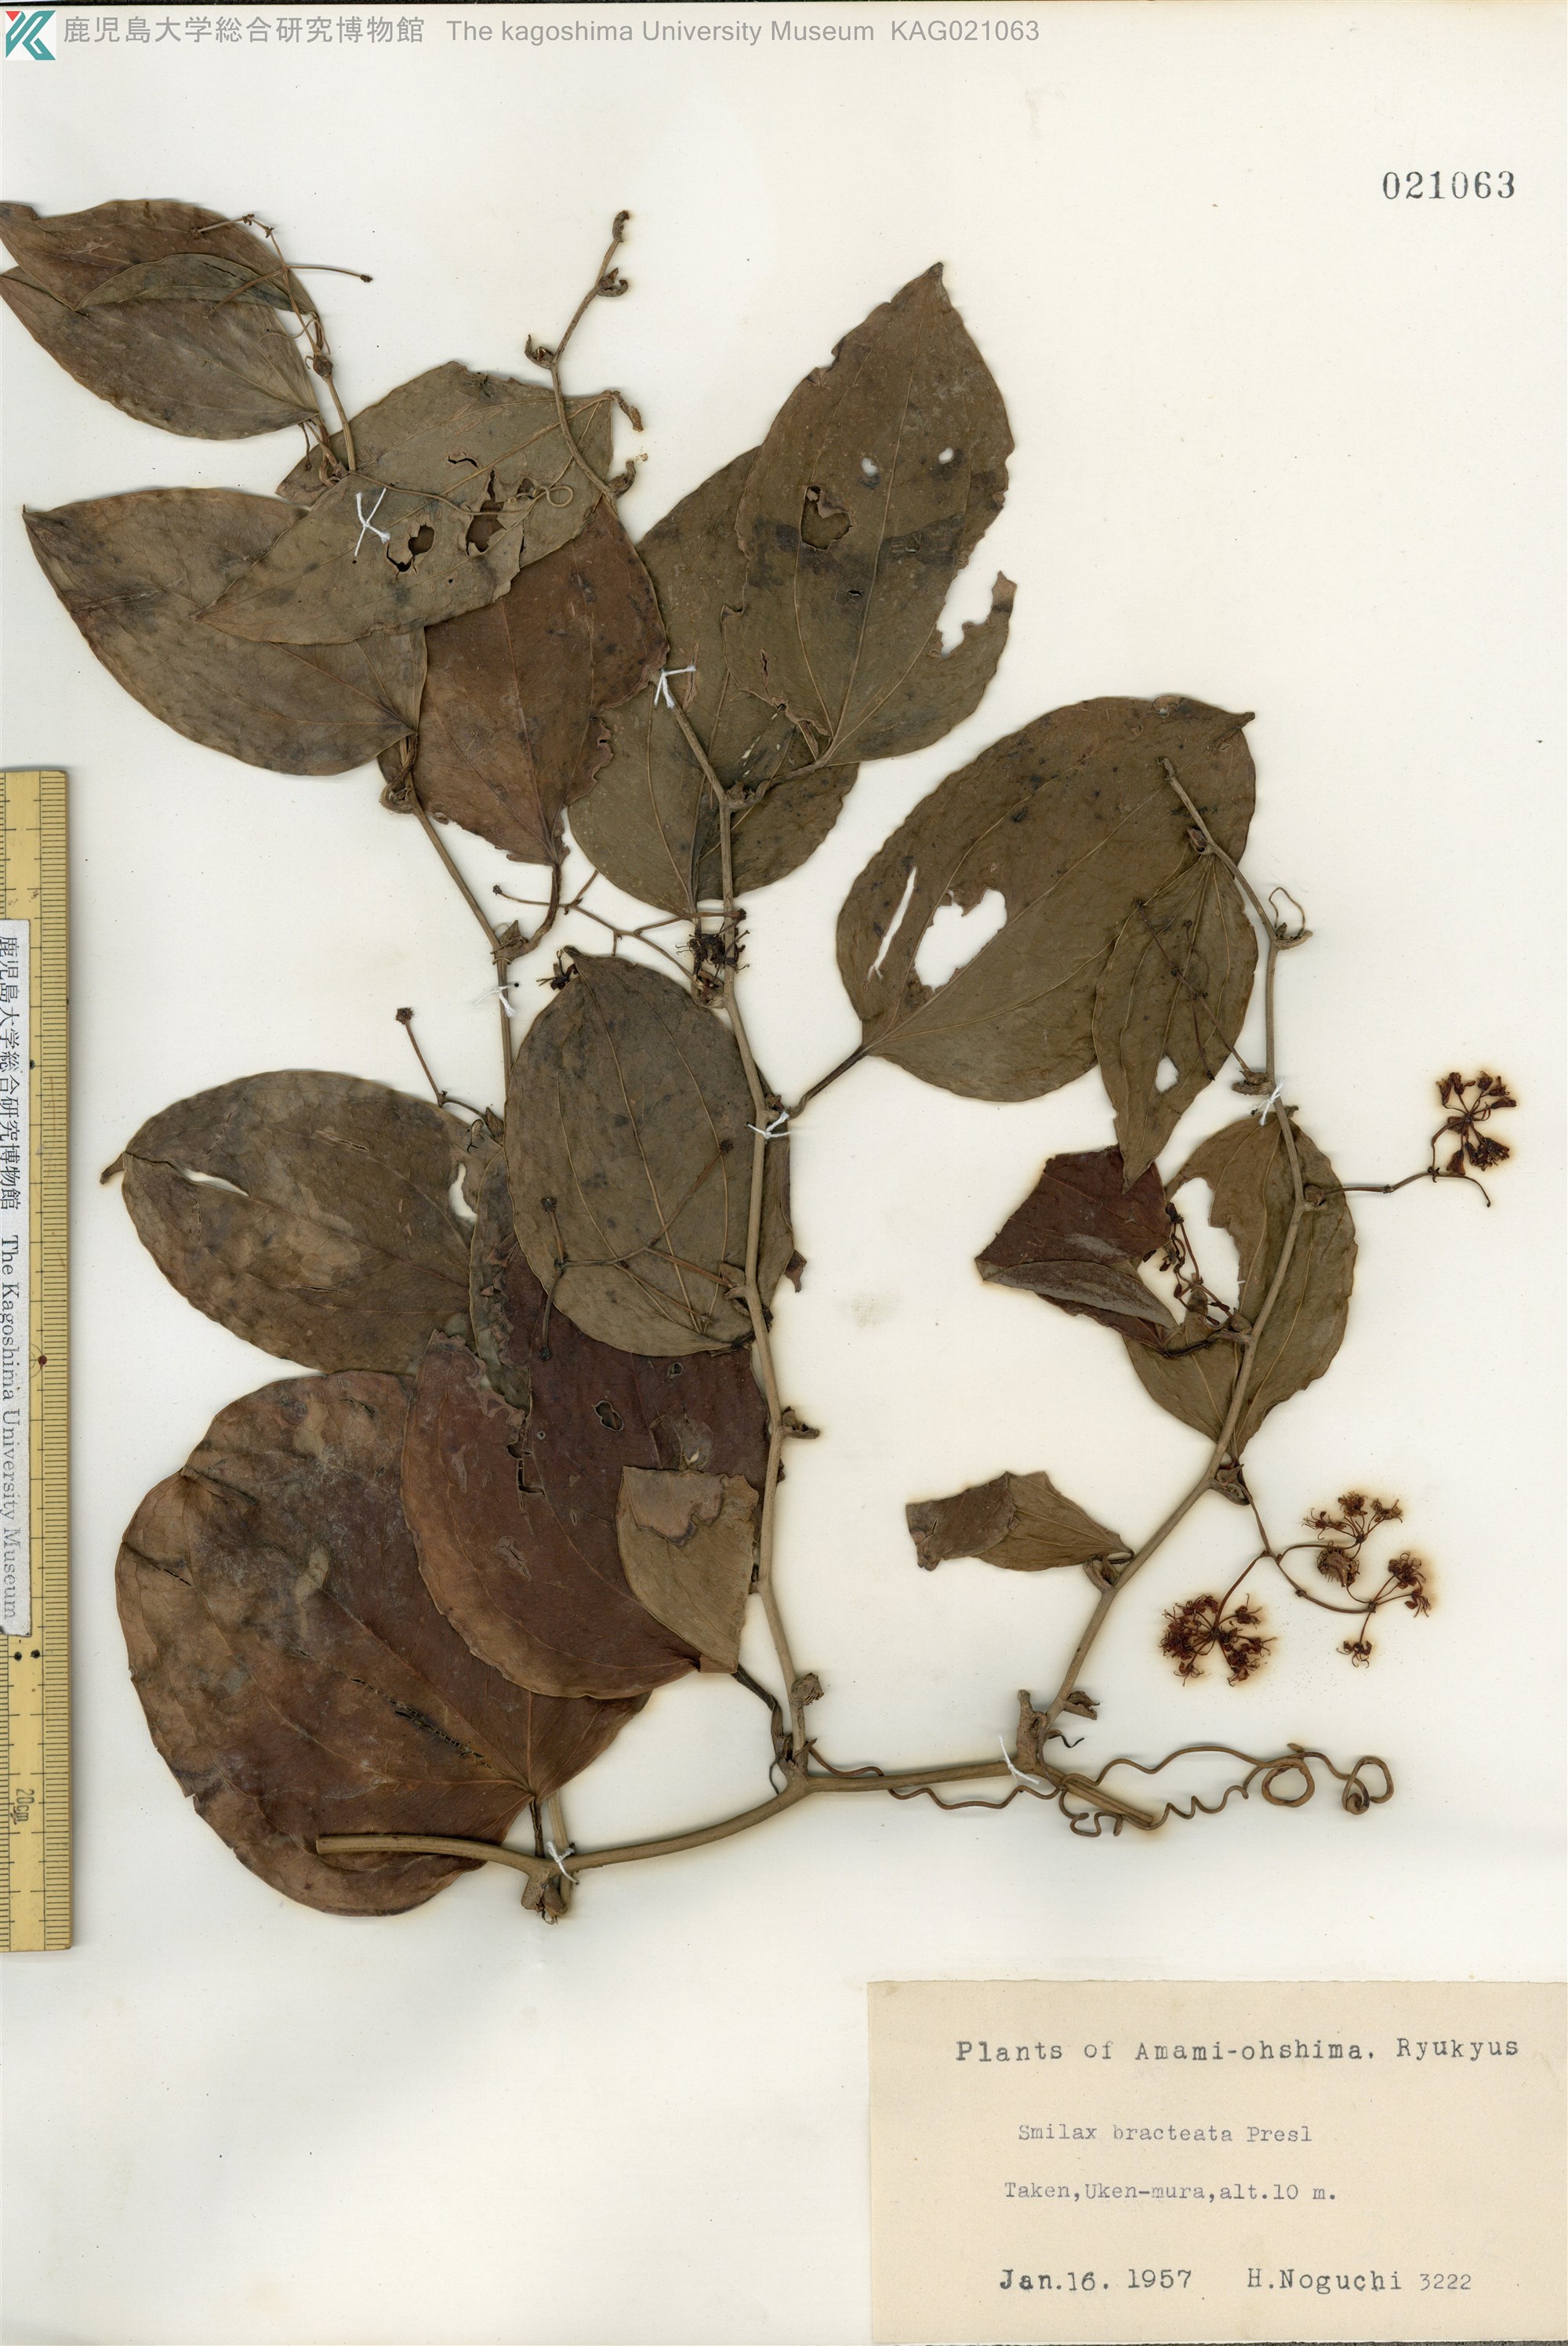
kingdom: Plantae
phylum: Tracheophyta
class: Liliopsida
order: Liliales
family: Smilacaceae
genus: Smilax
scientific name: Smilax bracteata
